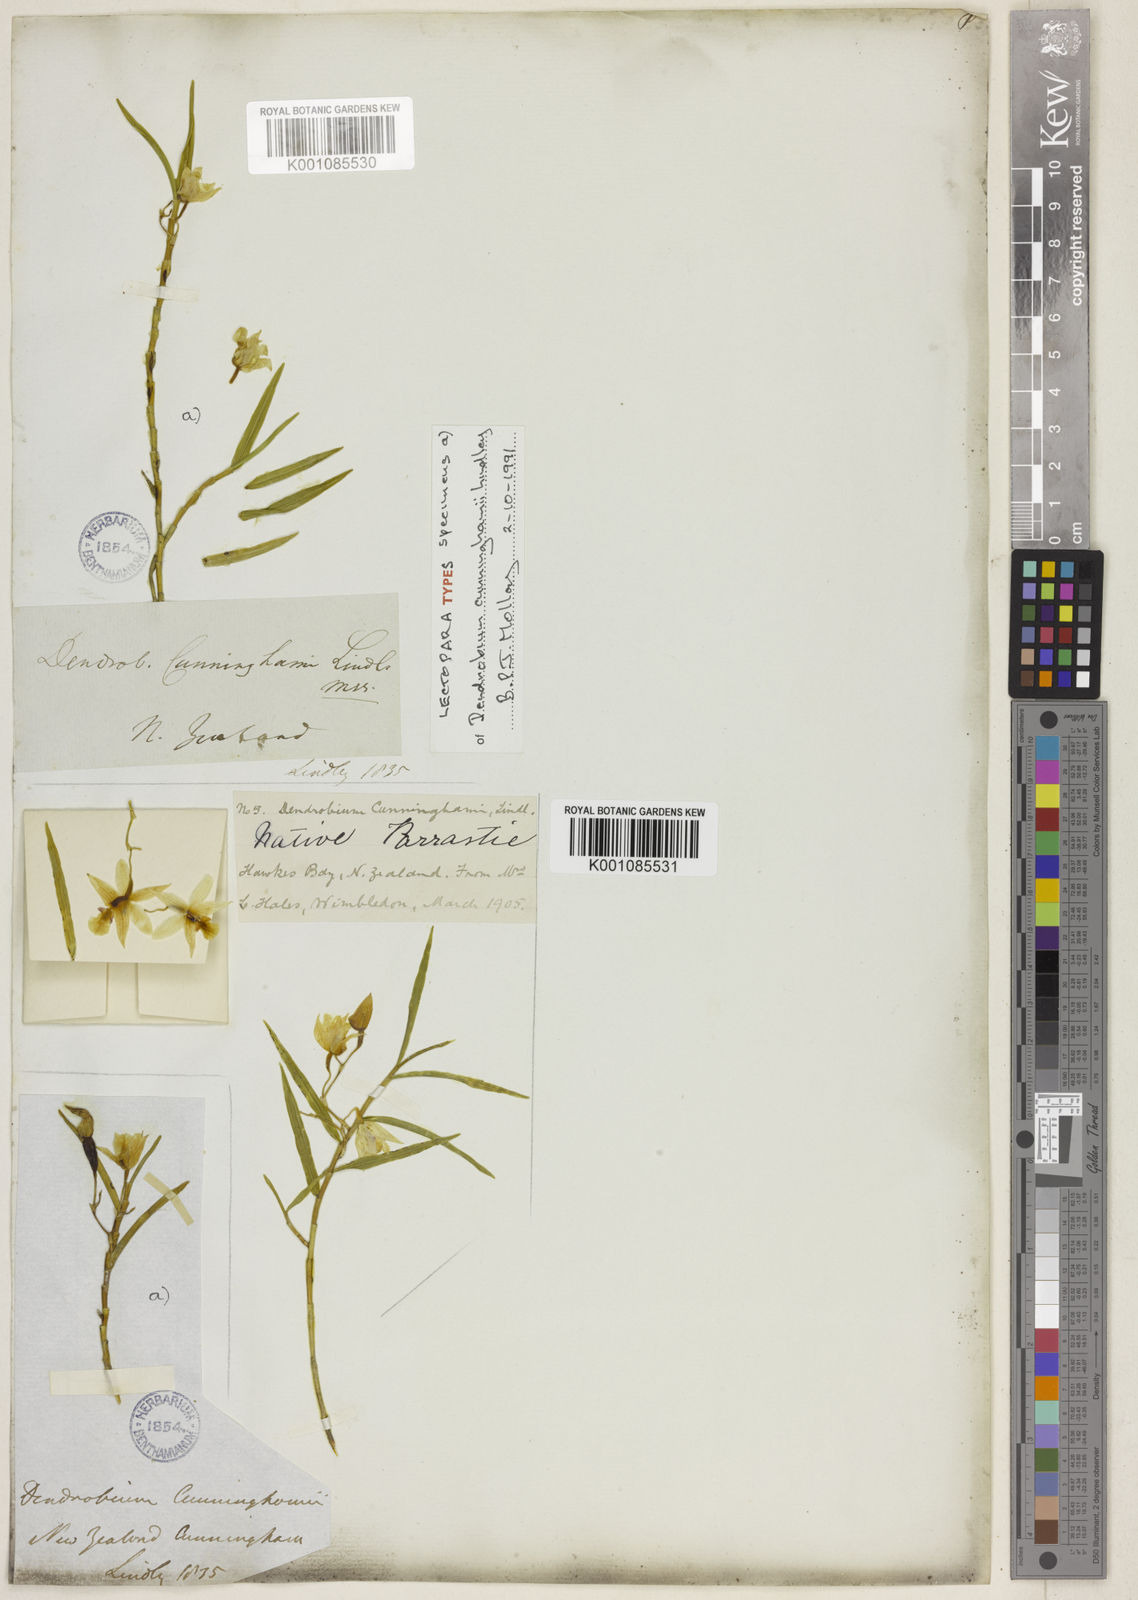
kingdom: Plantae
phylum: Tracheophyta
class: Liliopsida
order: Asparagales
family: Orchidaceae
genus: Dendrobium
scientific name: Dendrobium cunninghamii
